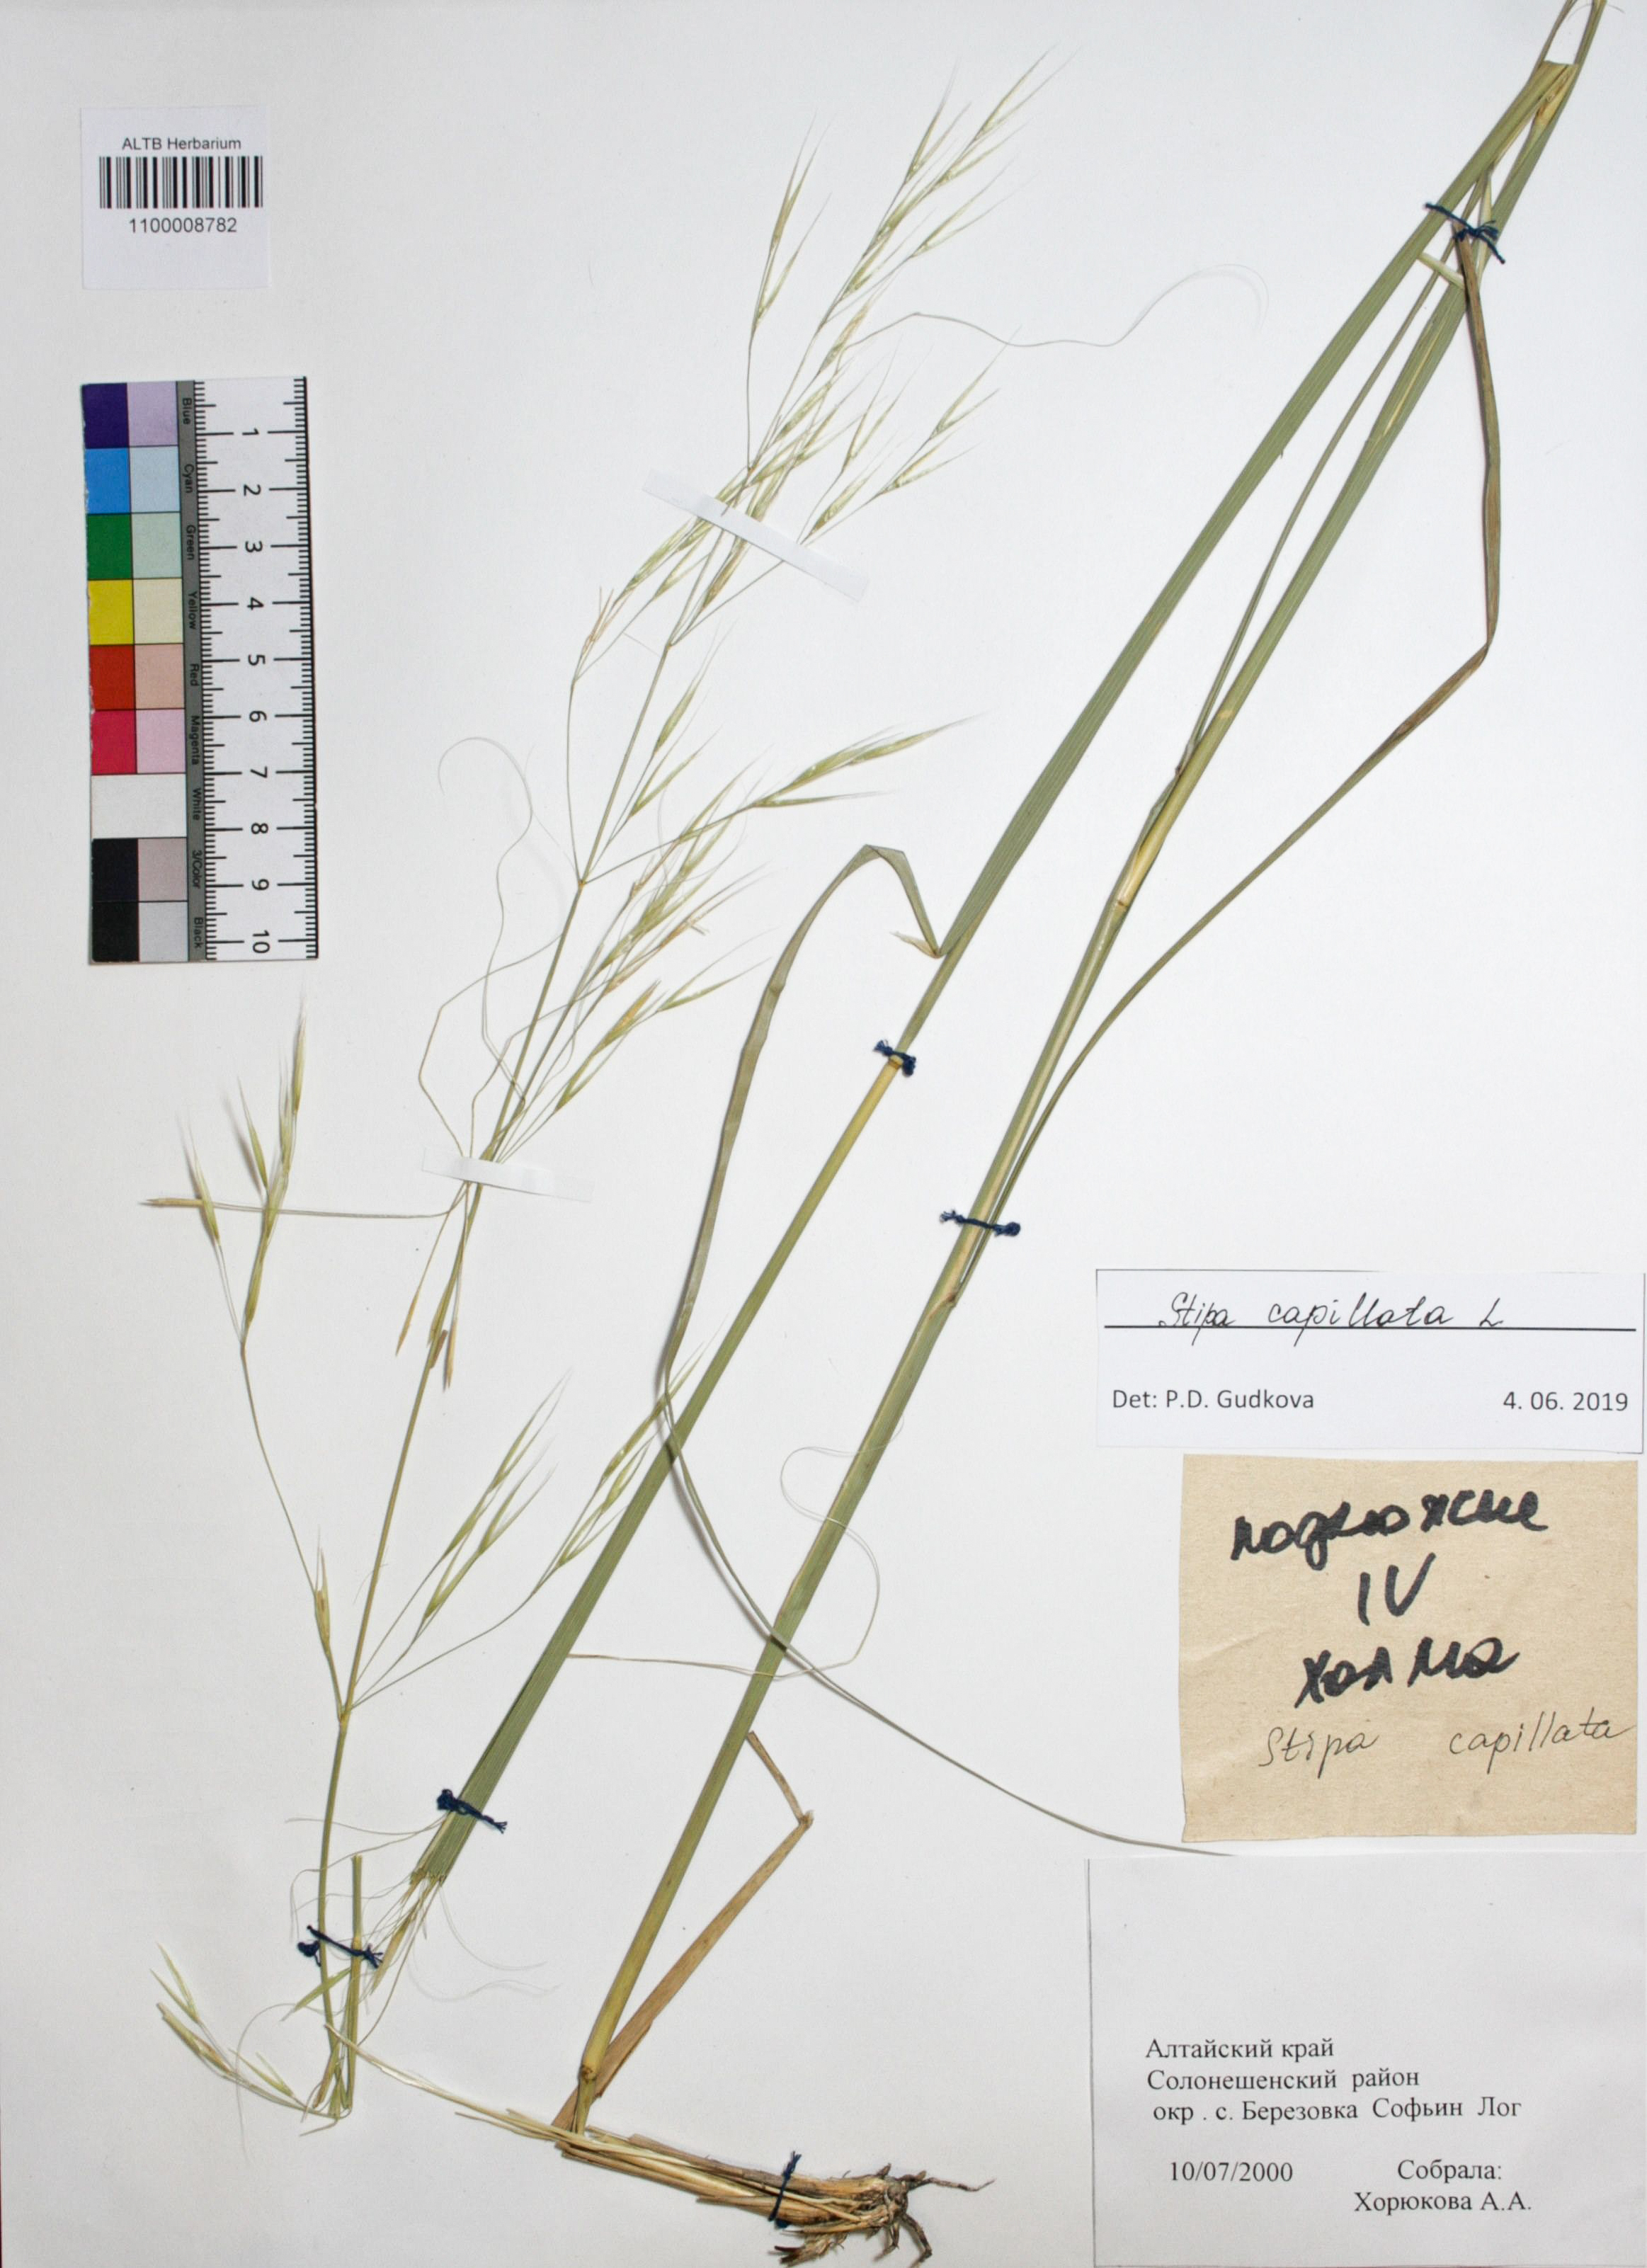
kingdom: Plantae
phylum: Tracheophyta
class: Liliopsida
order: Poales
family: Poaceae
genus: Stipa
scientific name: Stipa capillata
